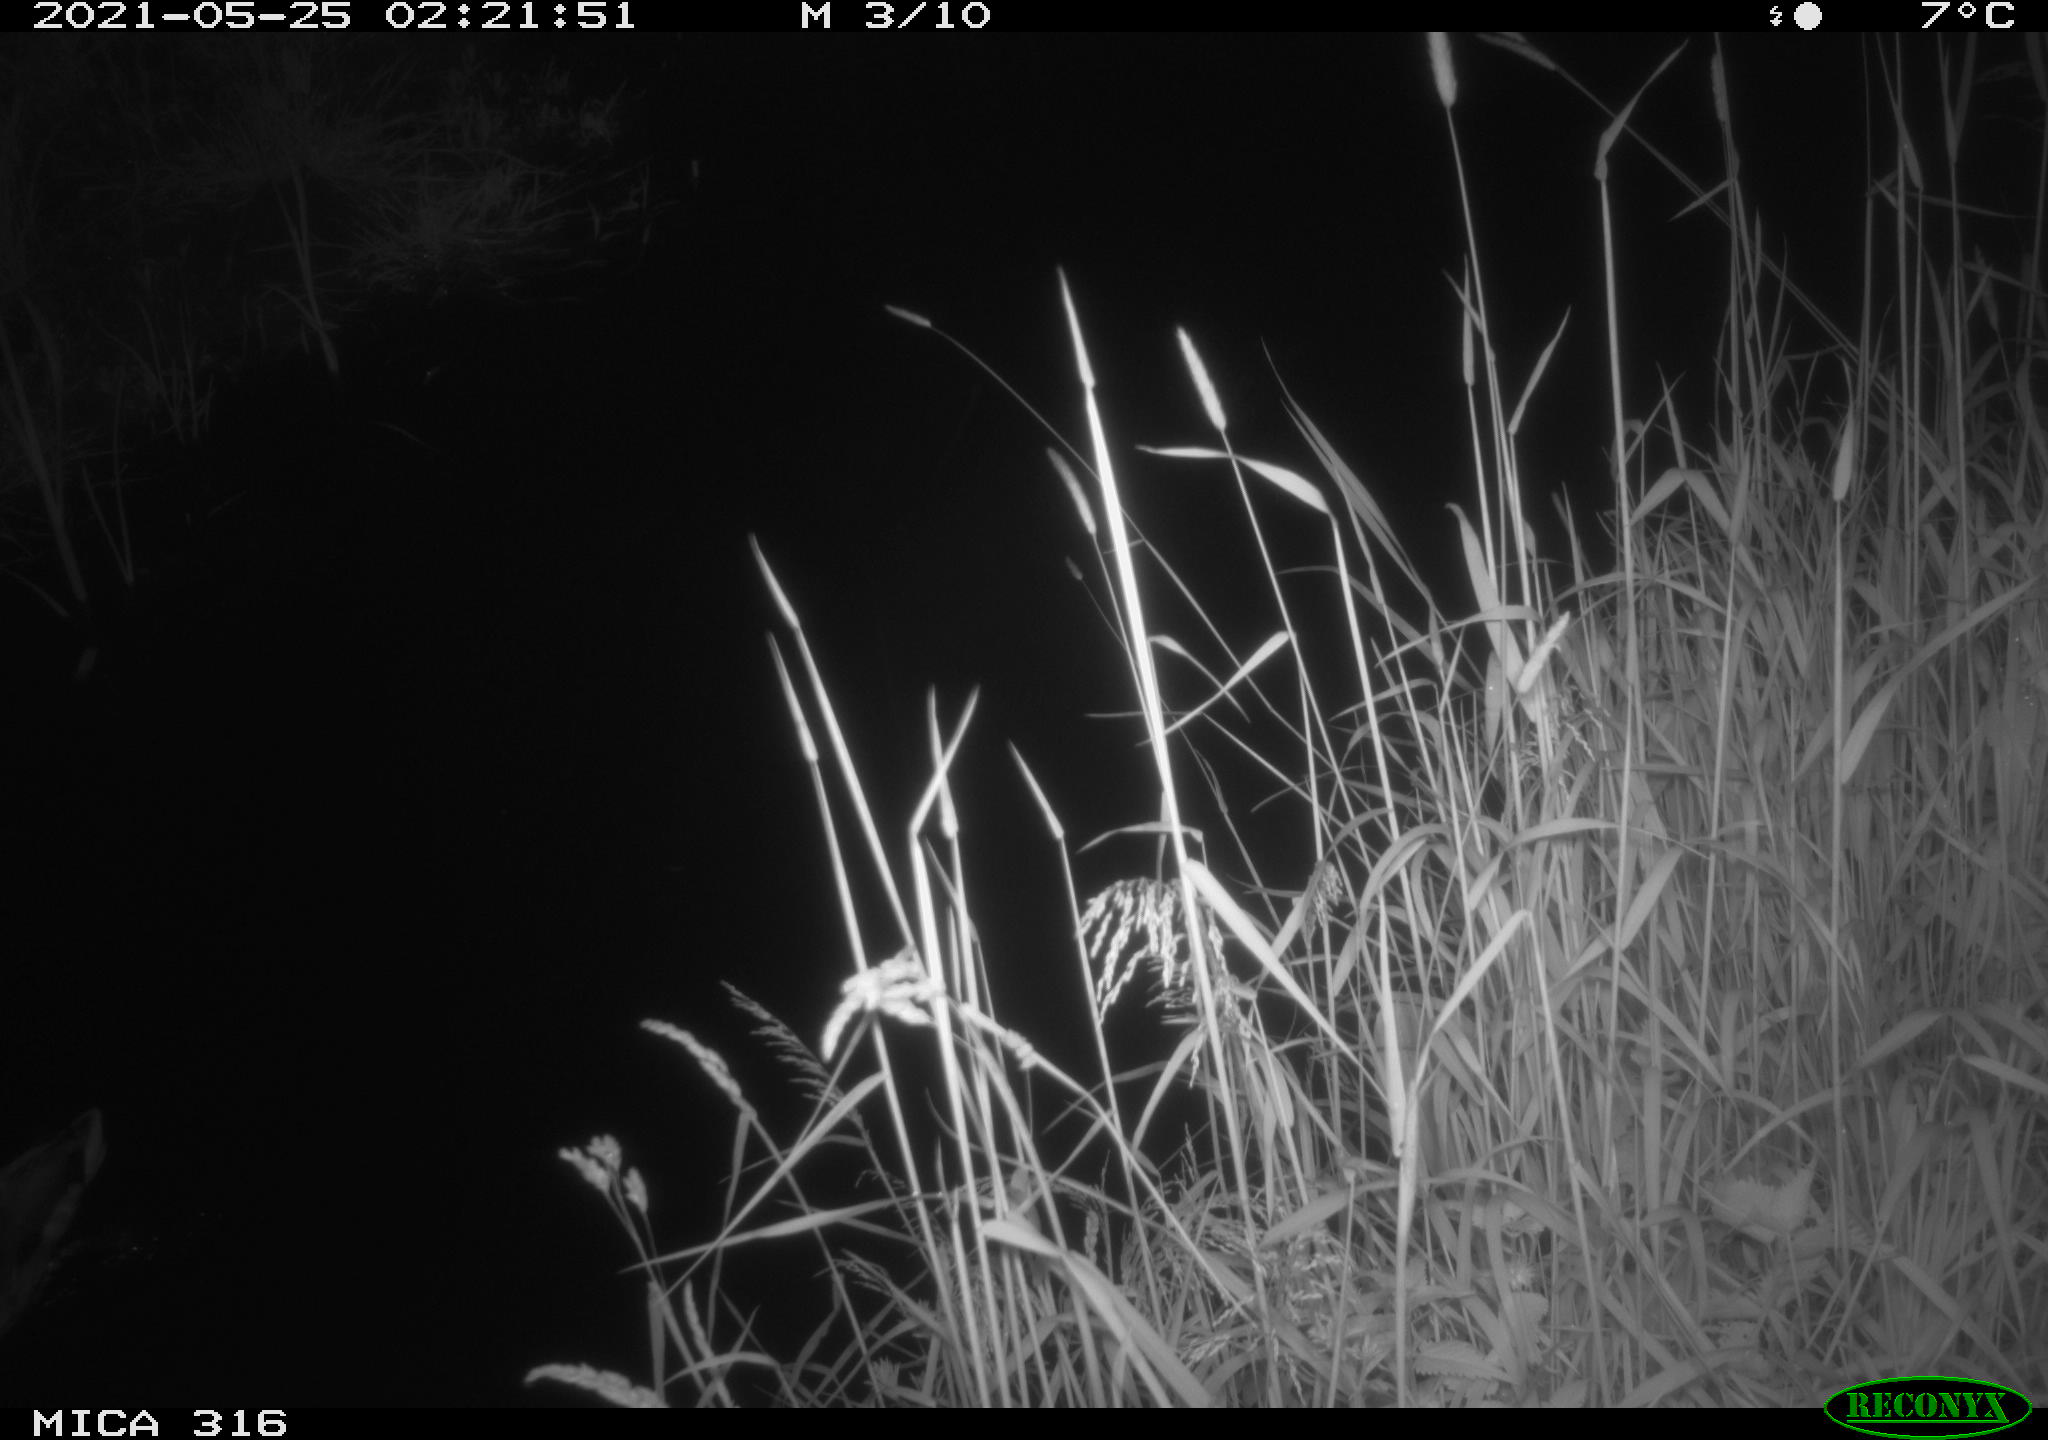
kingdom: Animalia
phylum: Chordata
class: Aves
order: Anseriformes
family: Anatidae
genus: Anas
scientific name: Anas platyrhynchos
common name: Mallard
